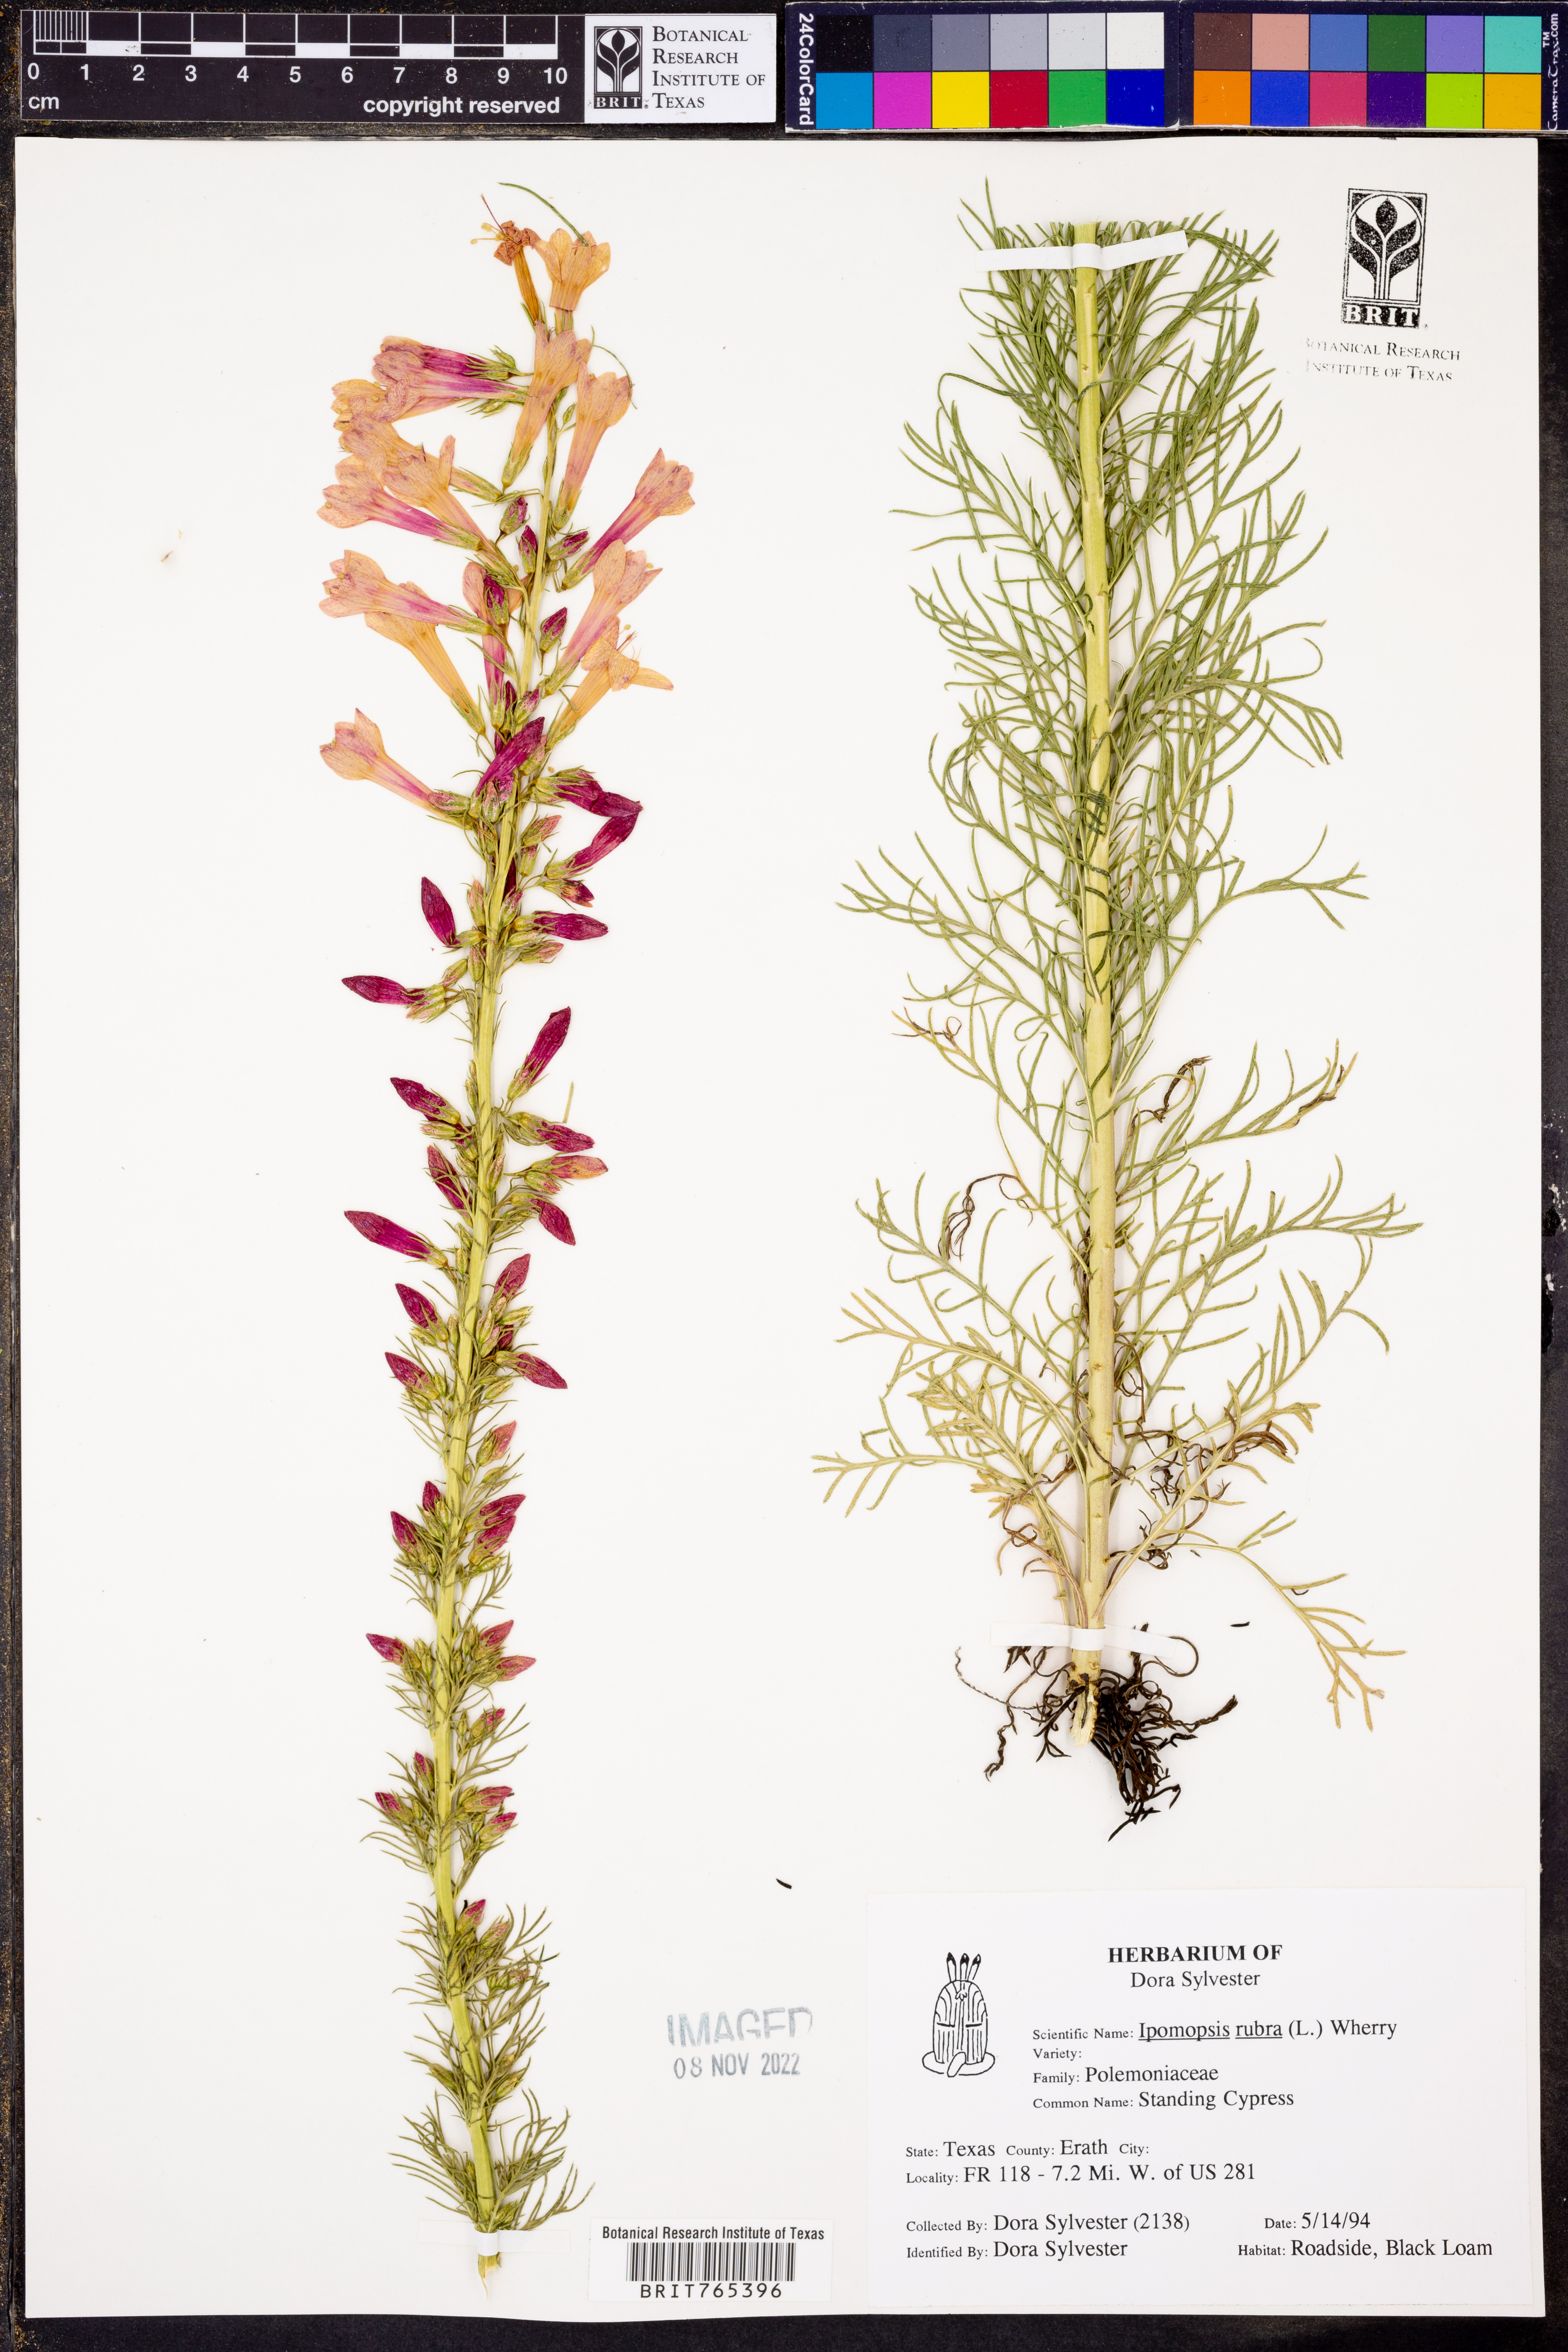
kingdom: Plantae
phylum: Tracheophyta
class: Magnoliopsida
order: Ericales
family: Polemoniaceae
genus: Ipomopsis
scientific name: Ipomopsis rubra
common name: Skyrocket
